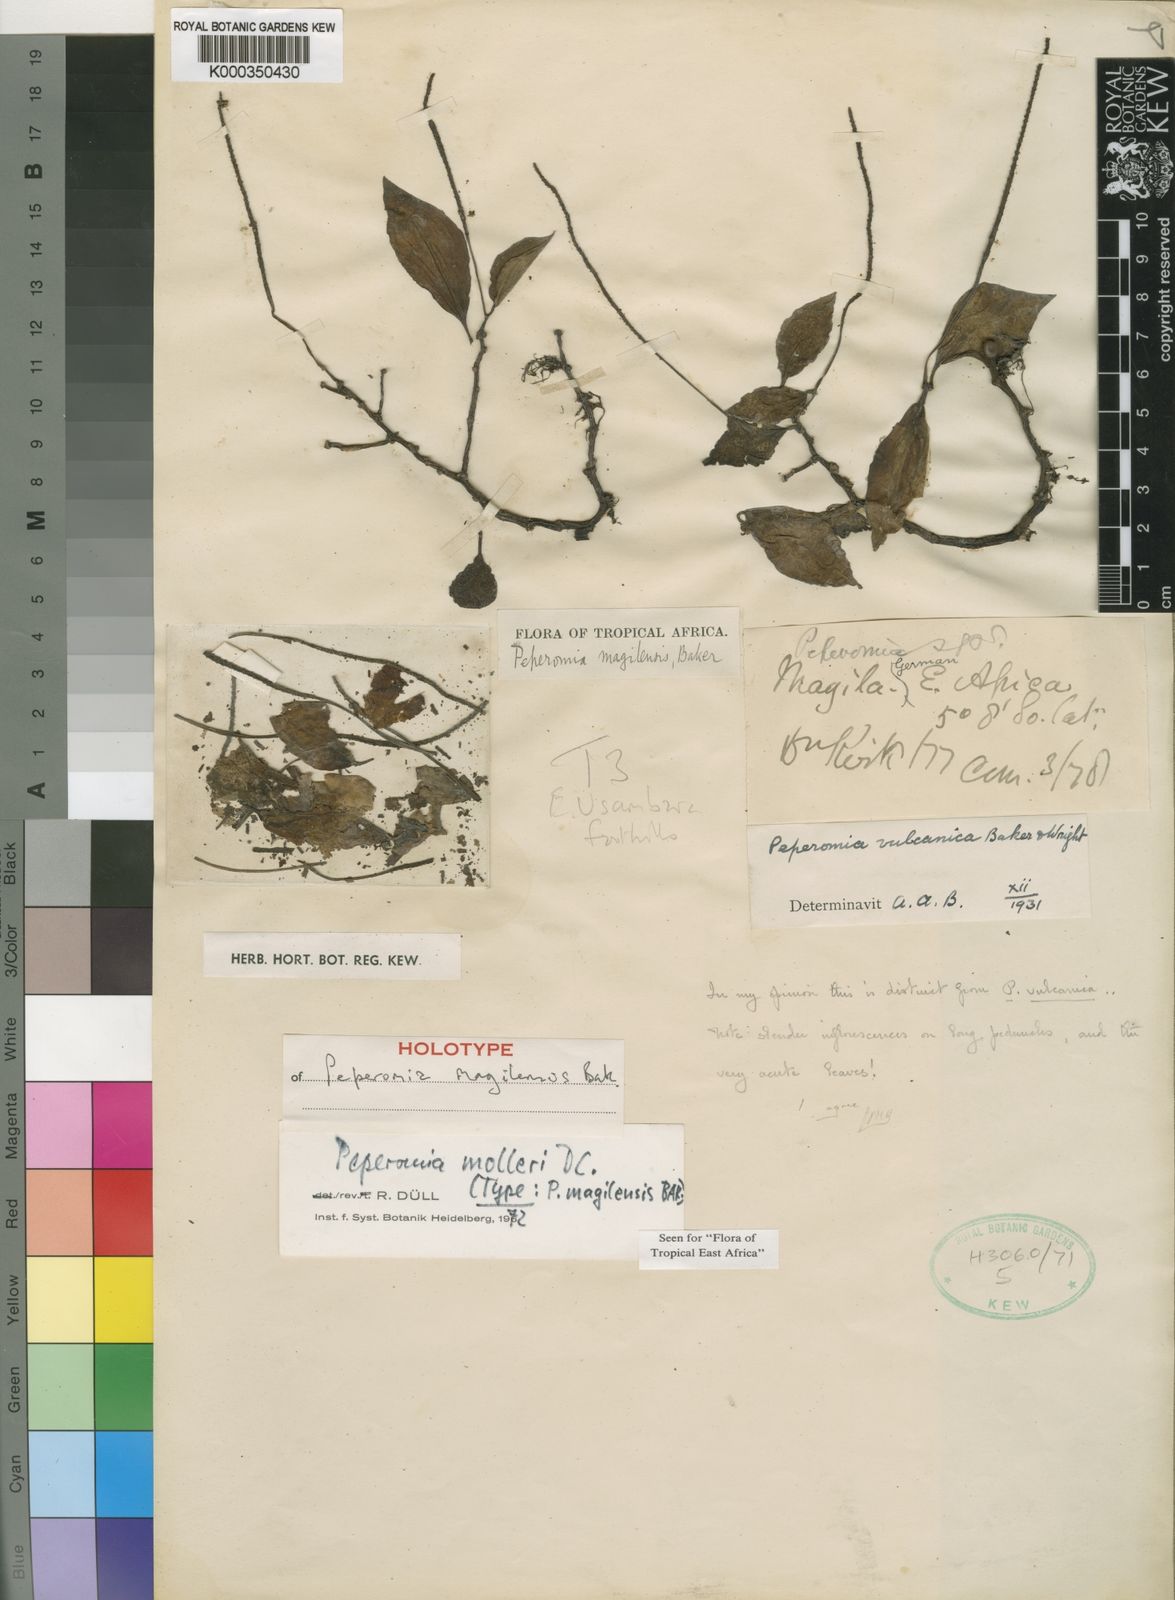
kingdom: Plantae
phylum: Tracheophyta
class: Magnoliopsida
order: Piperales
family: Piperaceae
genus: Peperomia
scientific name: Peperomia molleri
